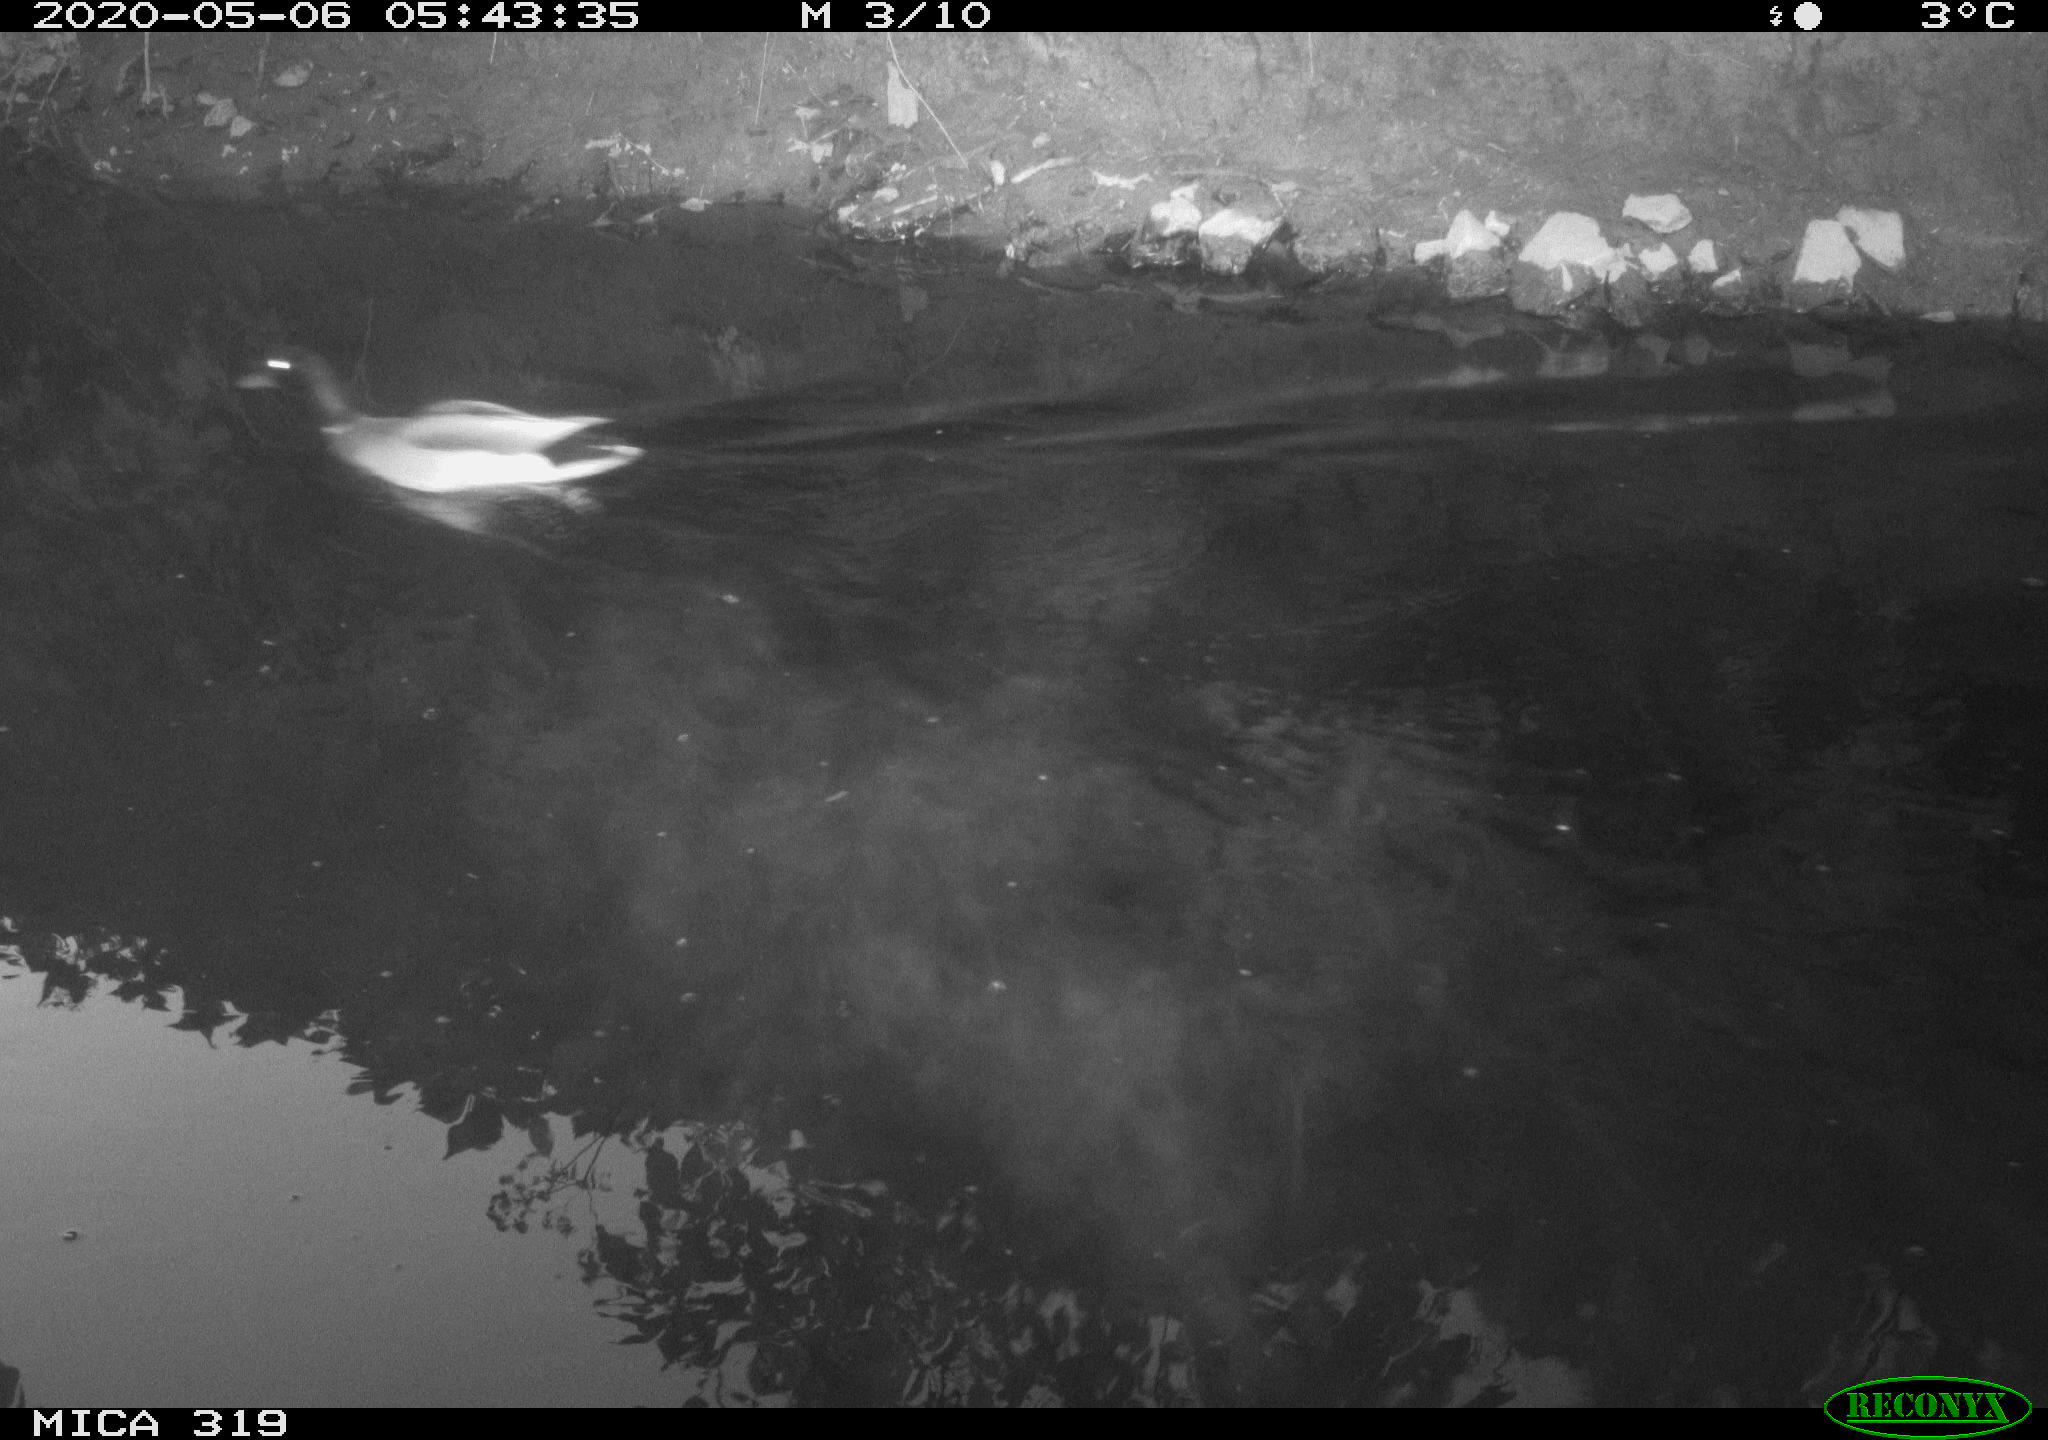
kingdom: Animalia
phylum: Chordata
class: Aves
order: Anseriformes
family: Anatidae
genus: Anas
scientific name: Anas platyrhynchos
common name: Mallard
